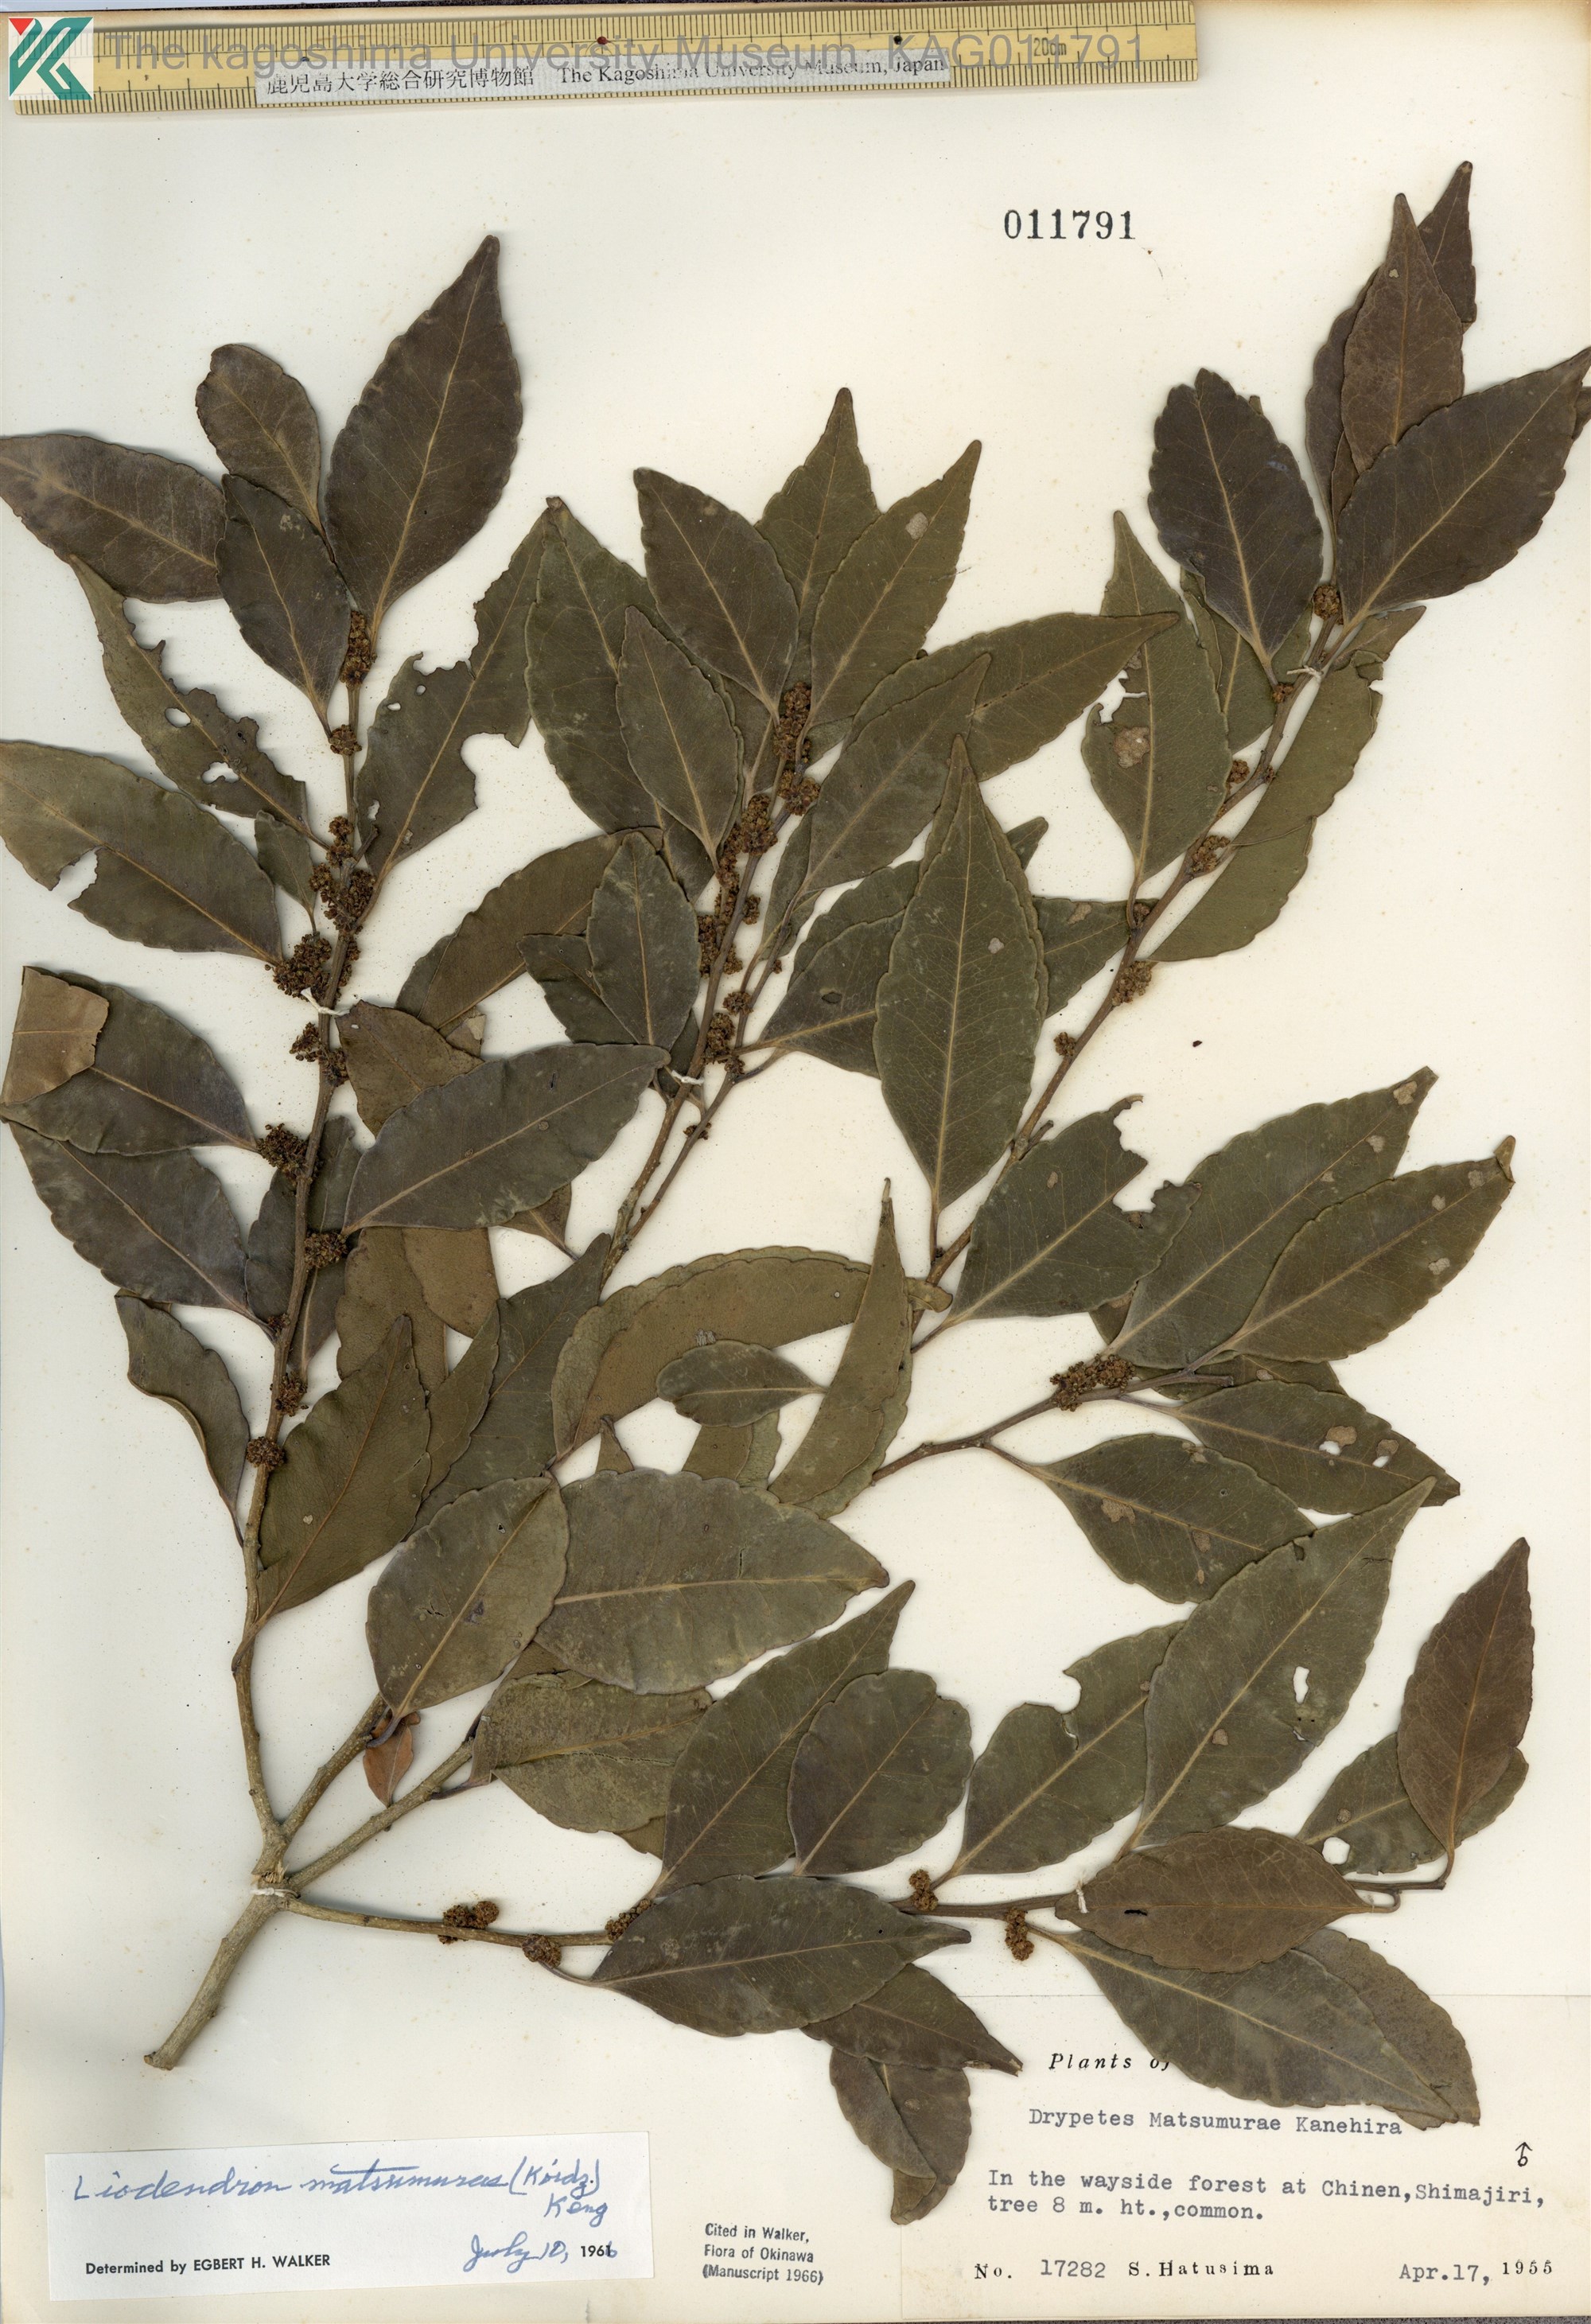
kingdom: Plantae
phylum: Tracheophyta
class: Magnoliopsida
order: Malpighiales
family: Putranjivaceae
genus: Putranjiva
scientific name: Putranjiva matsumurae
